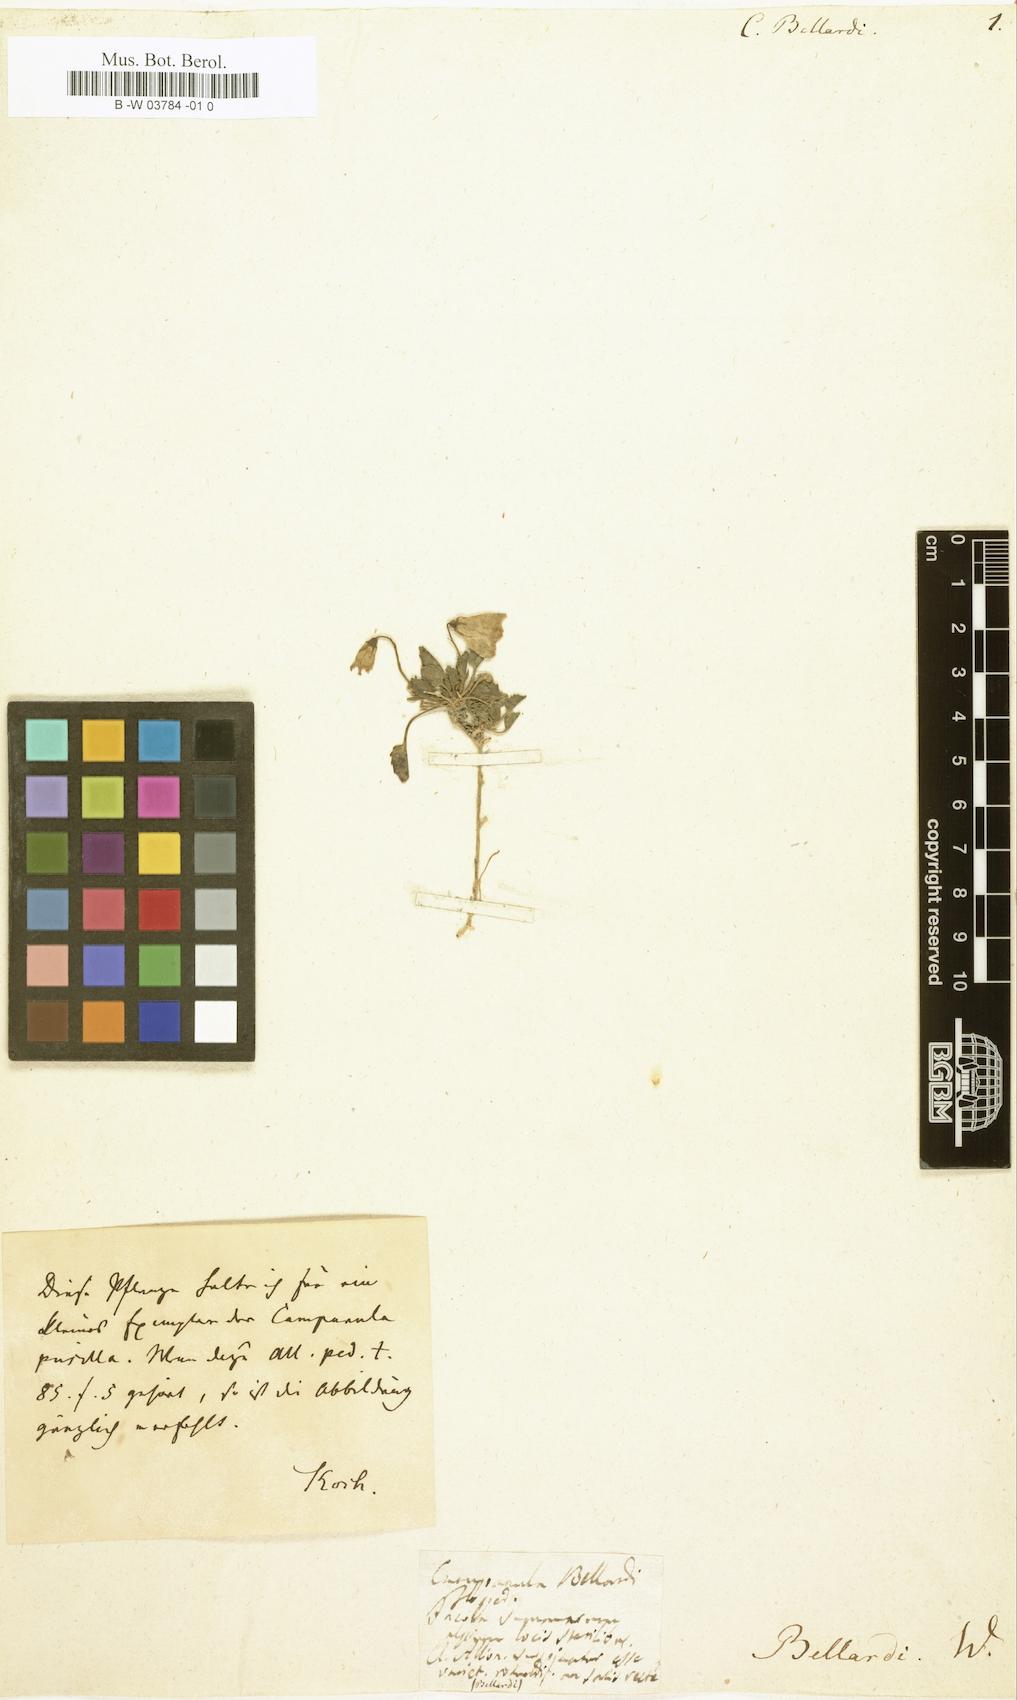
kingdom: Plantae
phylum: Tracheophyta
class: Magnoliopsida
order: Asterales
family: Campanulaceae
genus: Campanula
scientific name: Campanula cochleariifolia
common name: Fairies'-thimbles
